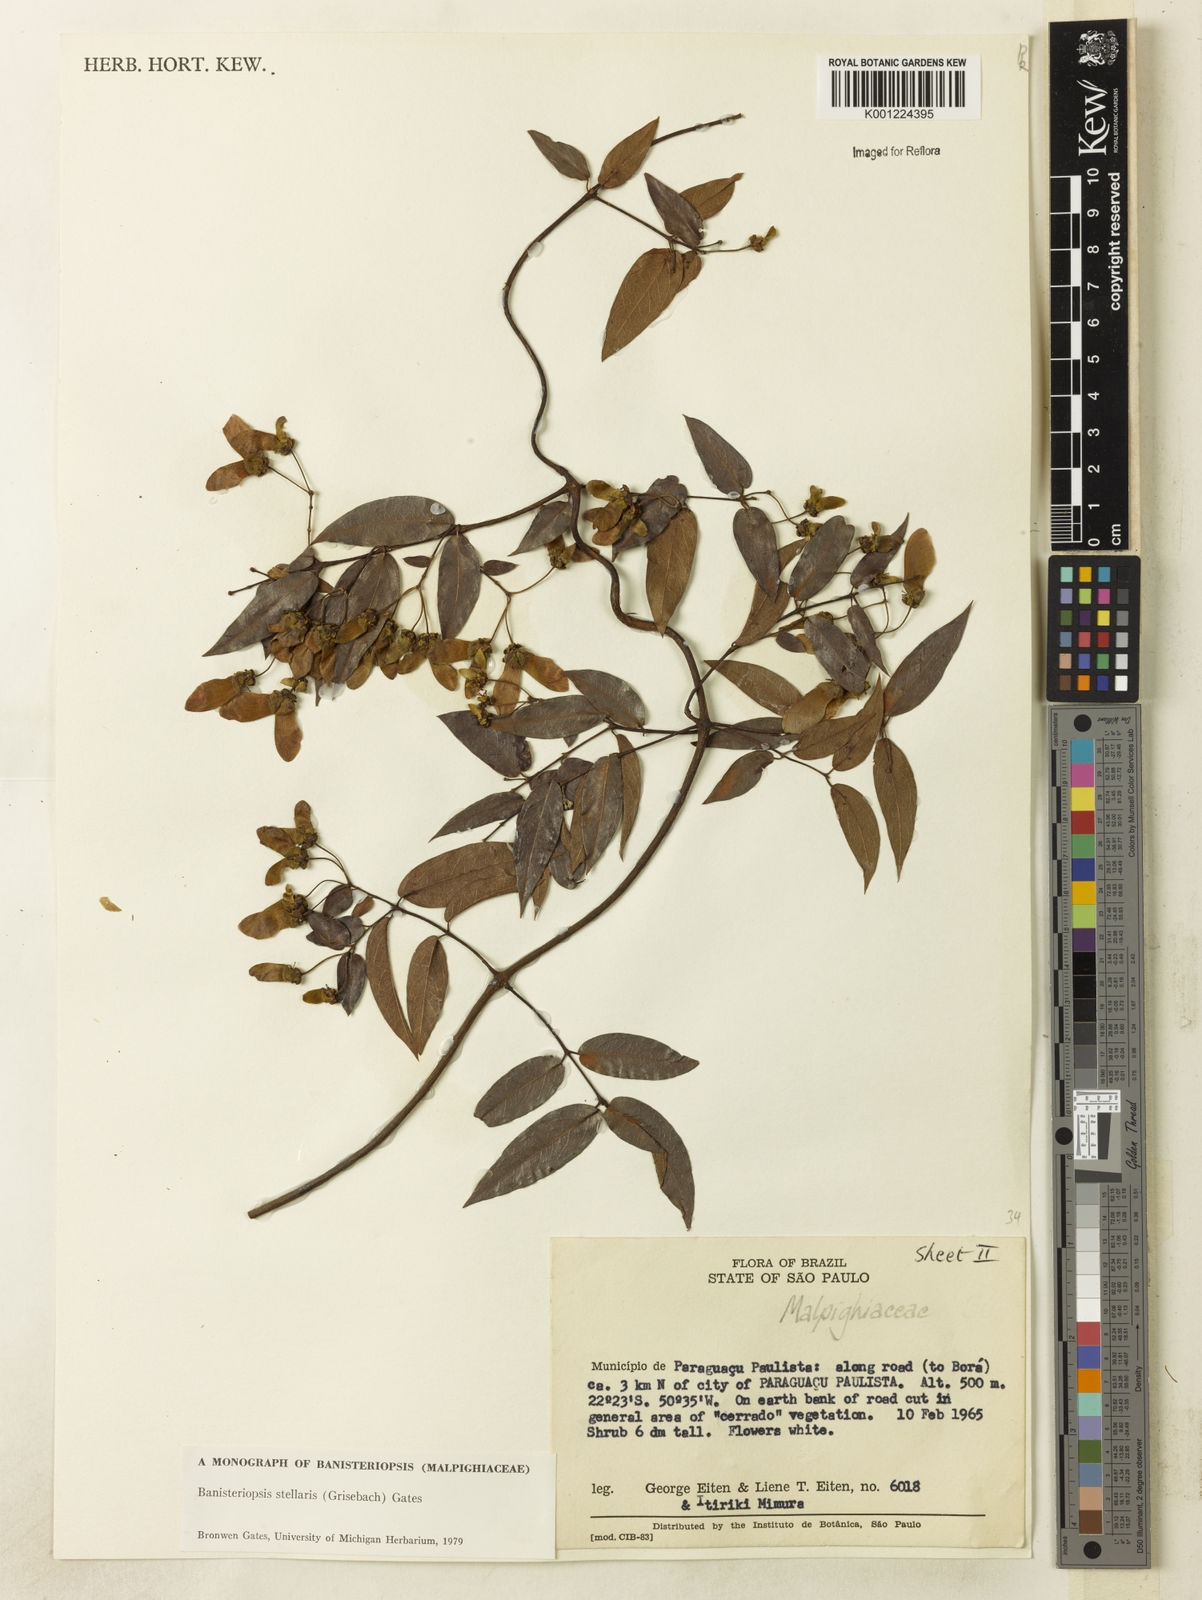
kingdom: Plantae
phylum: Tracheophyta
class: Magnoliopsida
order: Malpighiales
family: Malpighiaceae
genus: Banisteriopsis
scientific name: Banisteriopsis stellaris
